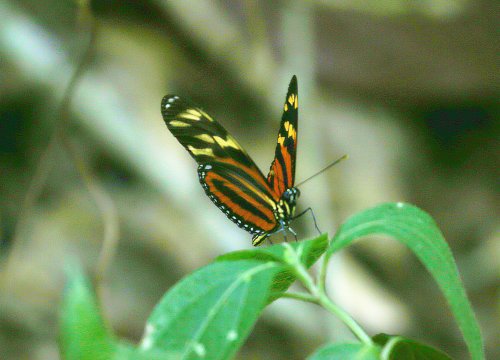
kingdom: Animalia
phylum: Arthropoda
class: Insecta
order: Lepidoptera
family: Nymphalidae
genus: Eueides
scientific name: Eueides isabella
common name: Isabella's Heliconian
